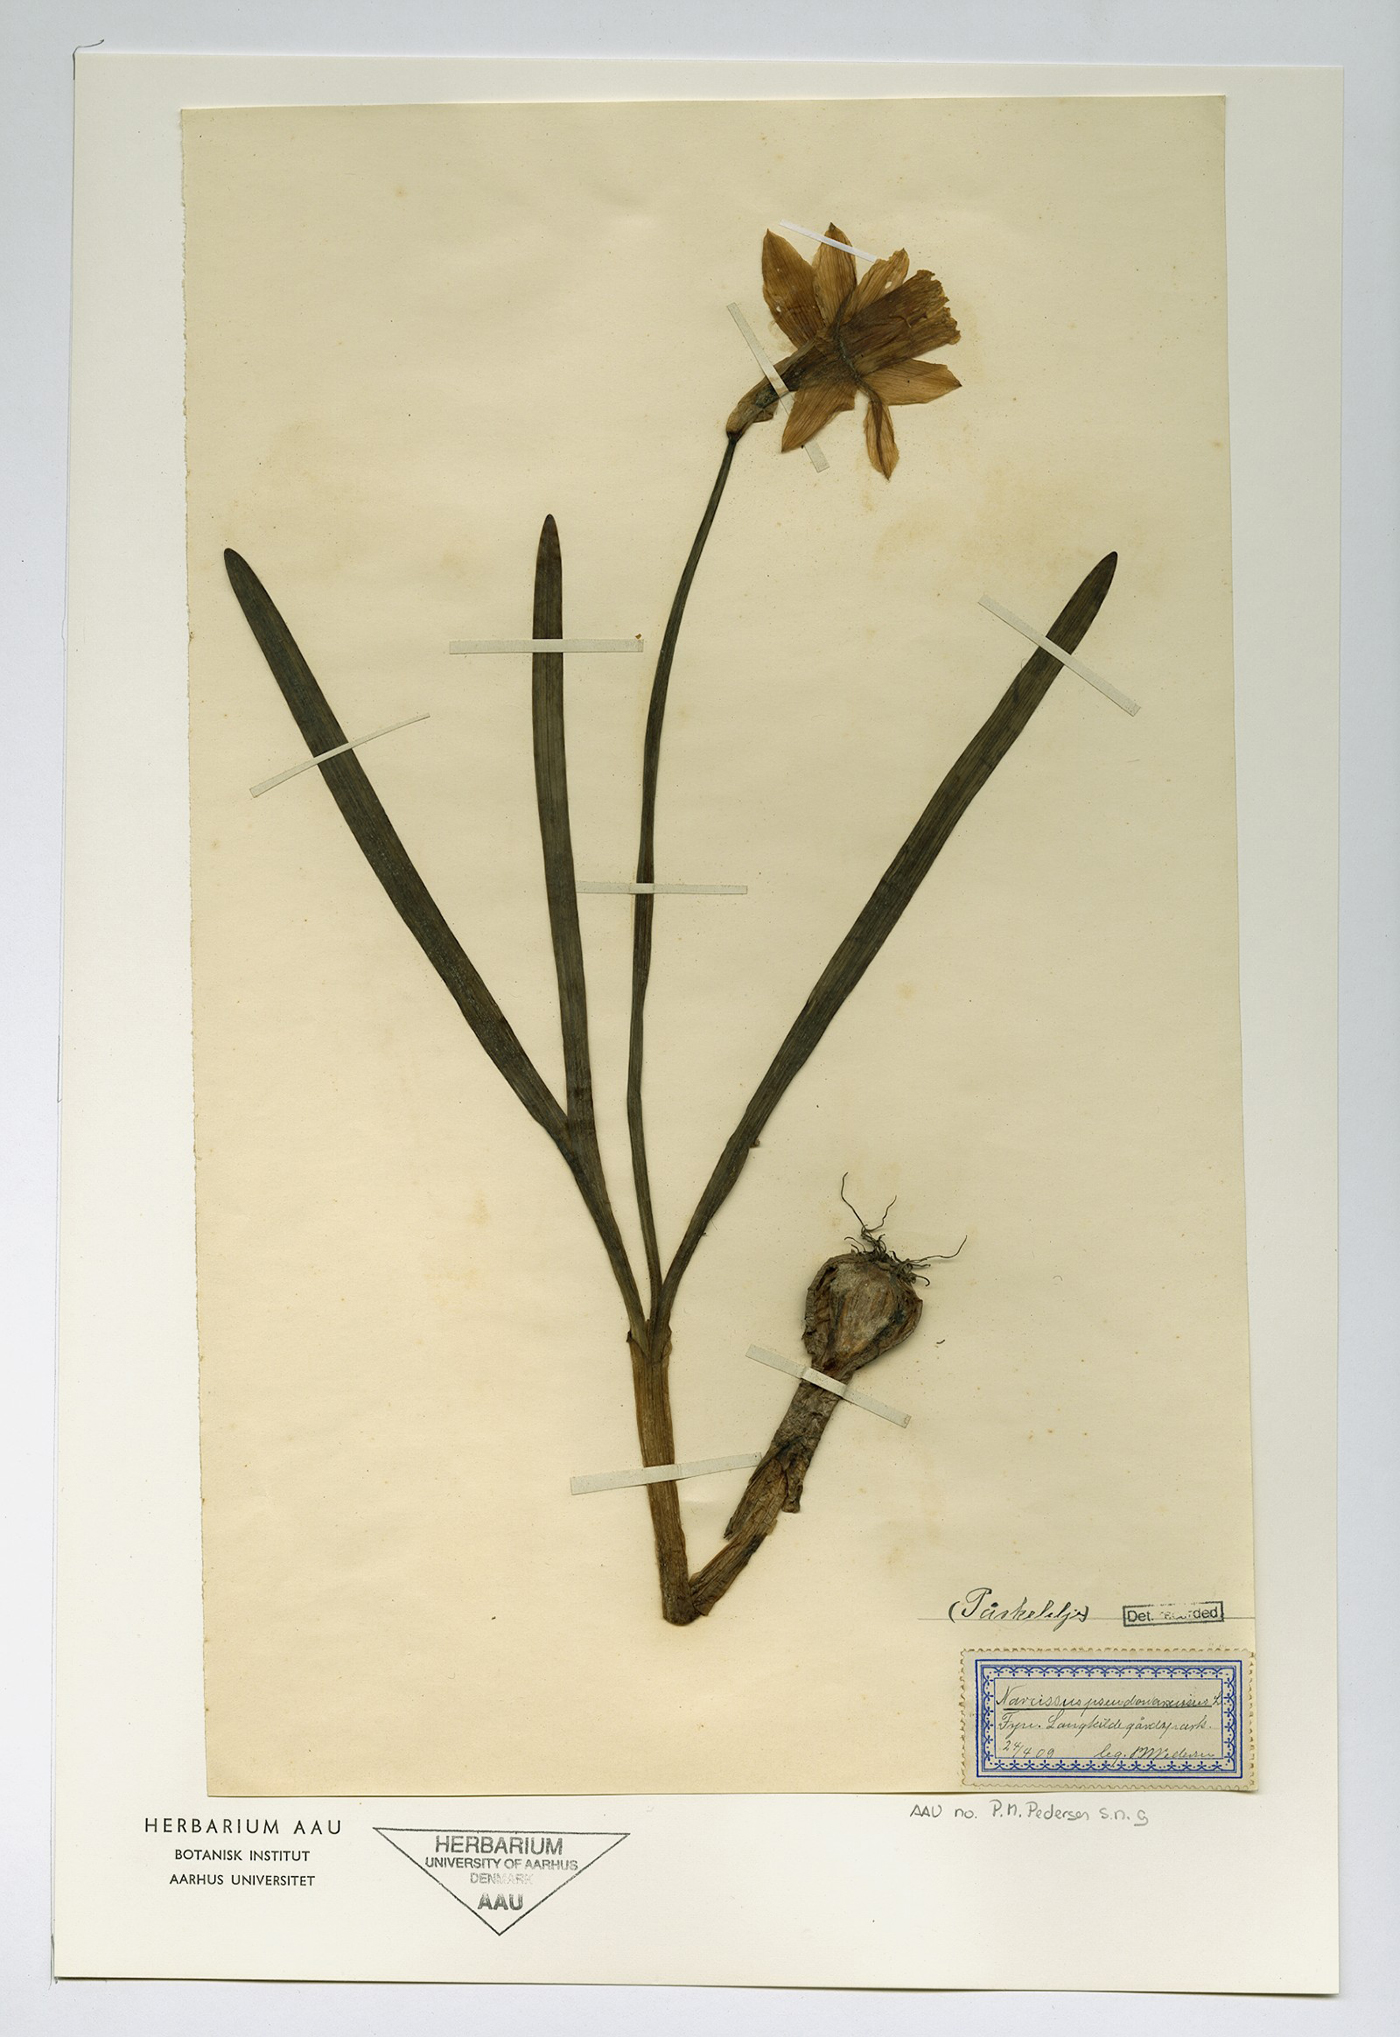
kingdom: Plantae
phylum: Tracheophyta
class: Liliopsida
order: Asparagales
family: Amaryllidaceae
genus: Narcissus
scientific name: Narcissus pseudonarcissus
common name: Daffodil
